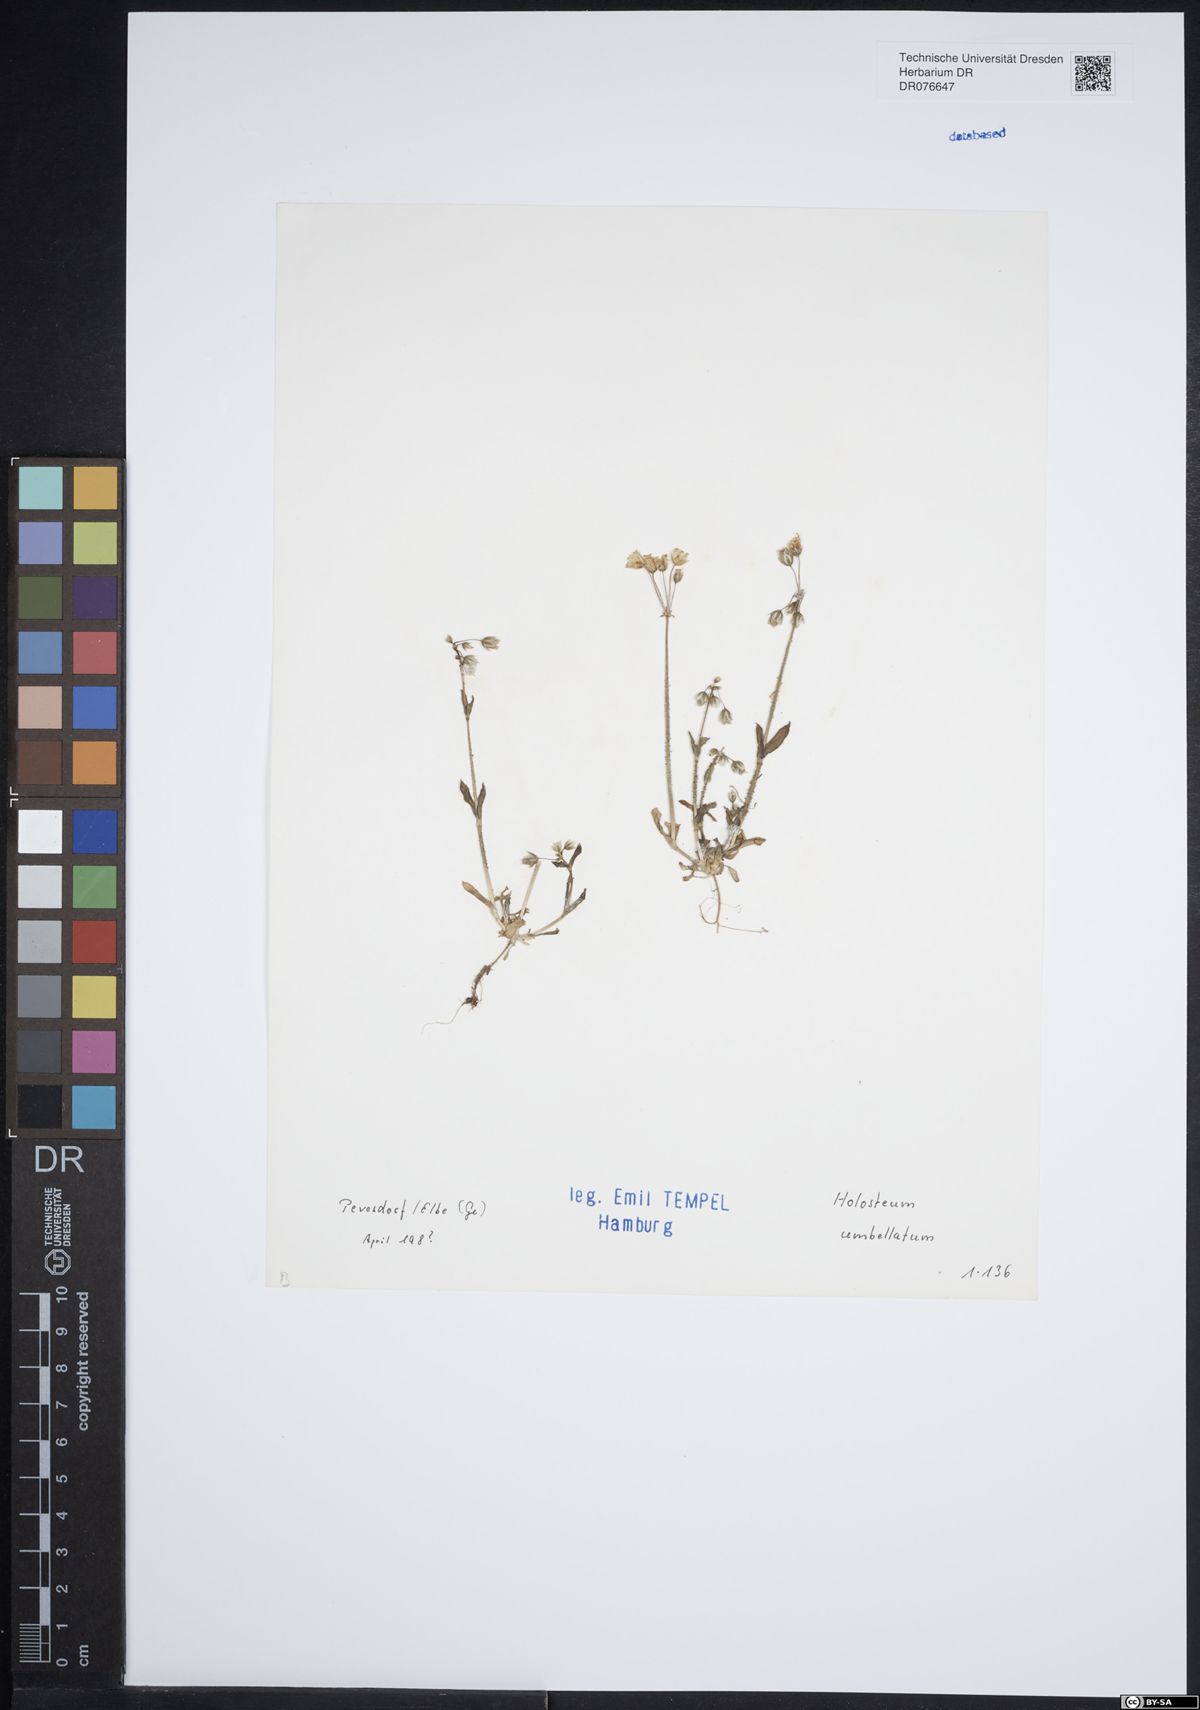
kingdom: Plantae
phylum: Tracheophyta
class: Magnoliopsida
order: Caryophyllales
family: Caryophyllaceae
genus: Holosteum
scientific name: Holosteum umbellatum
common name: Jagged chickweed
